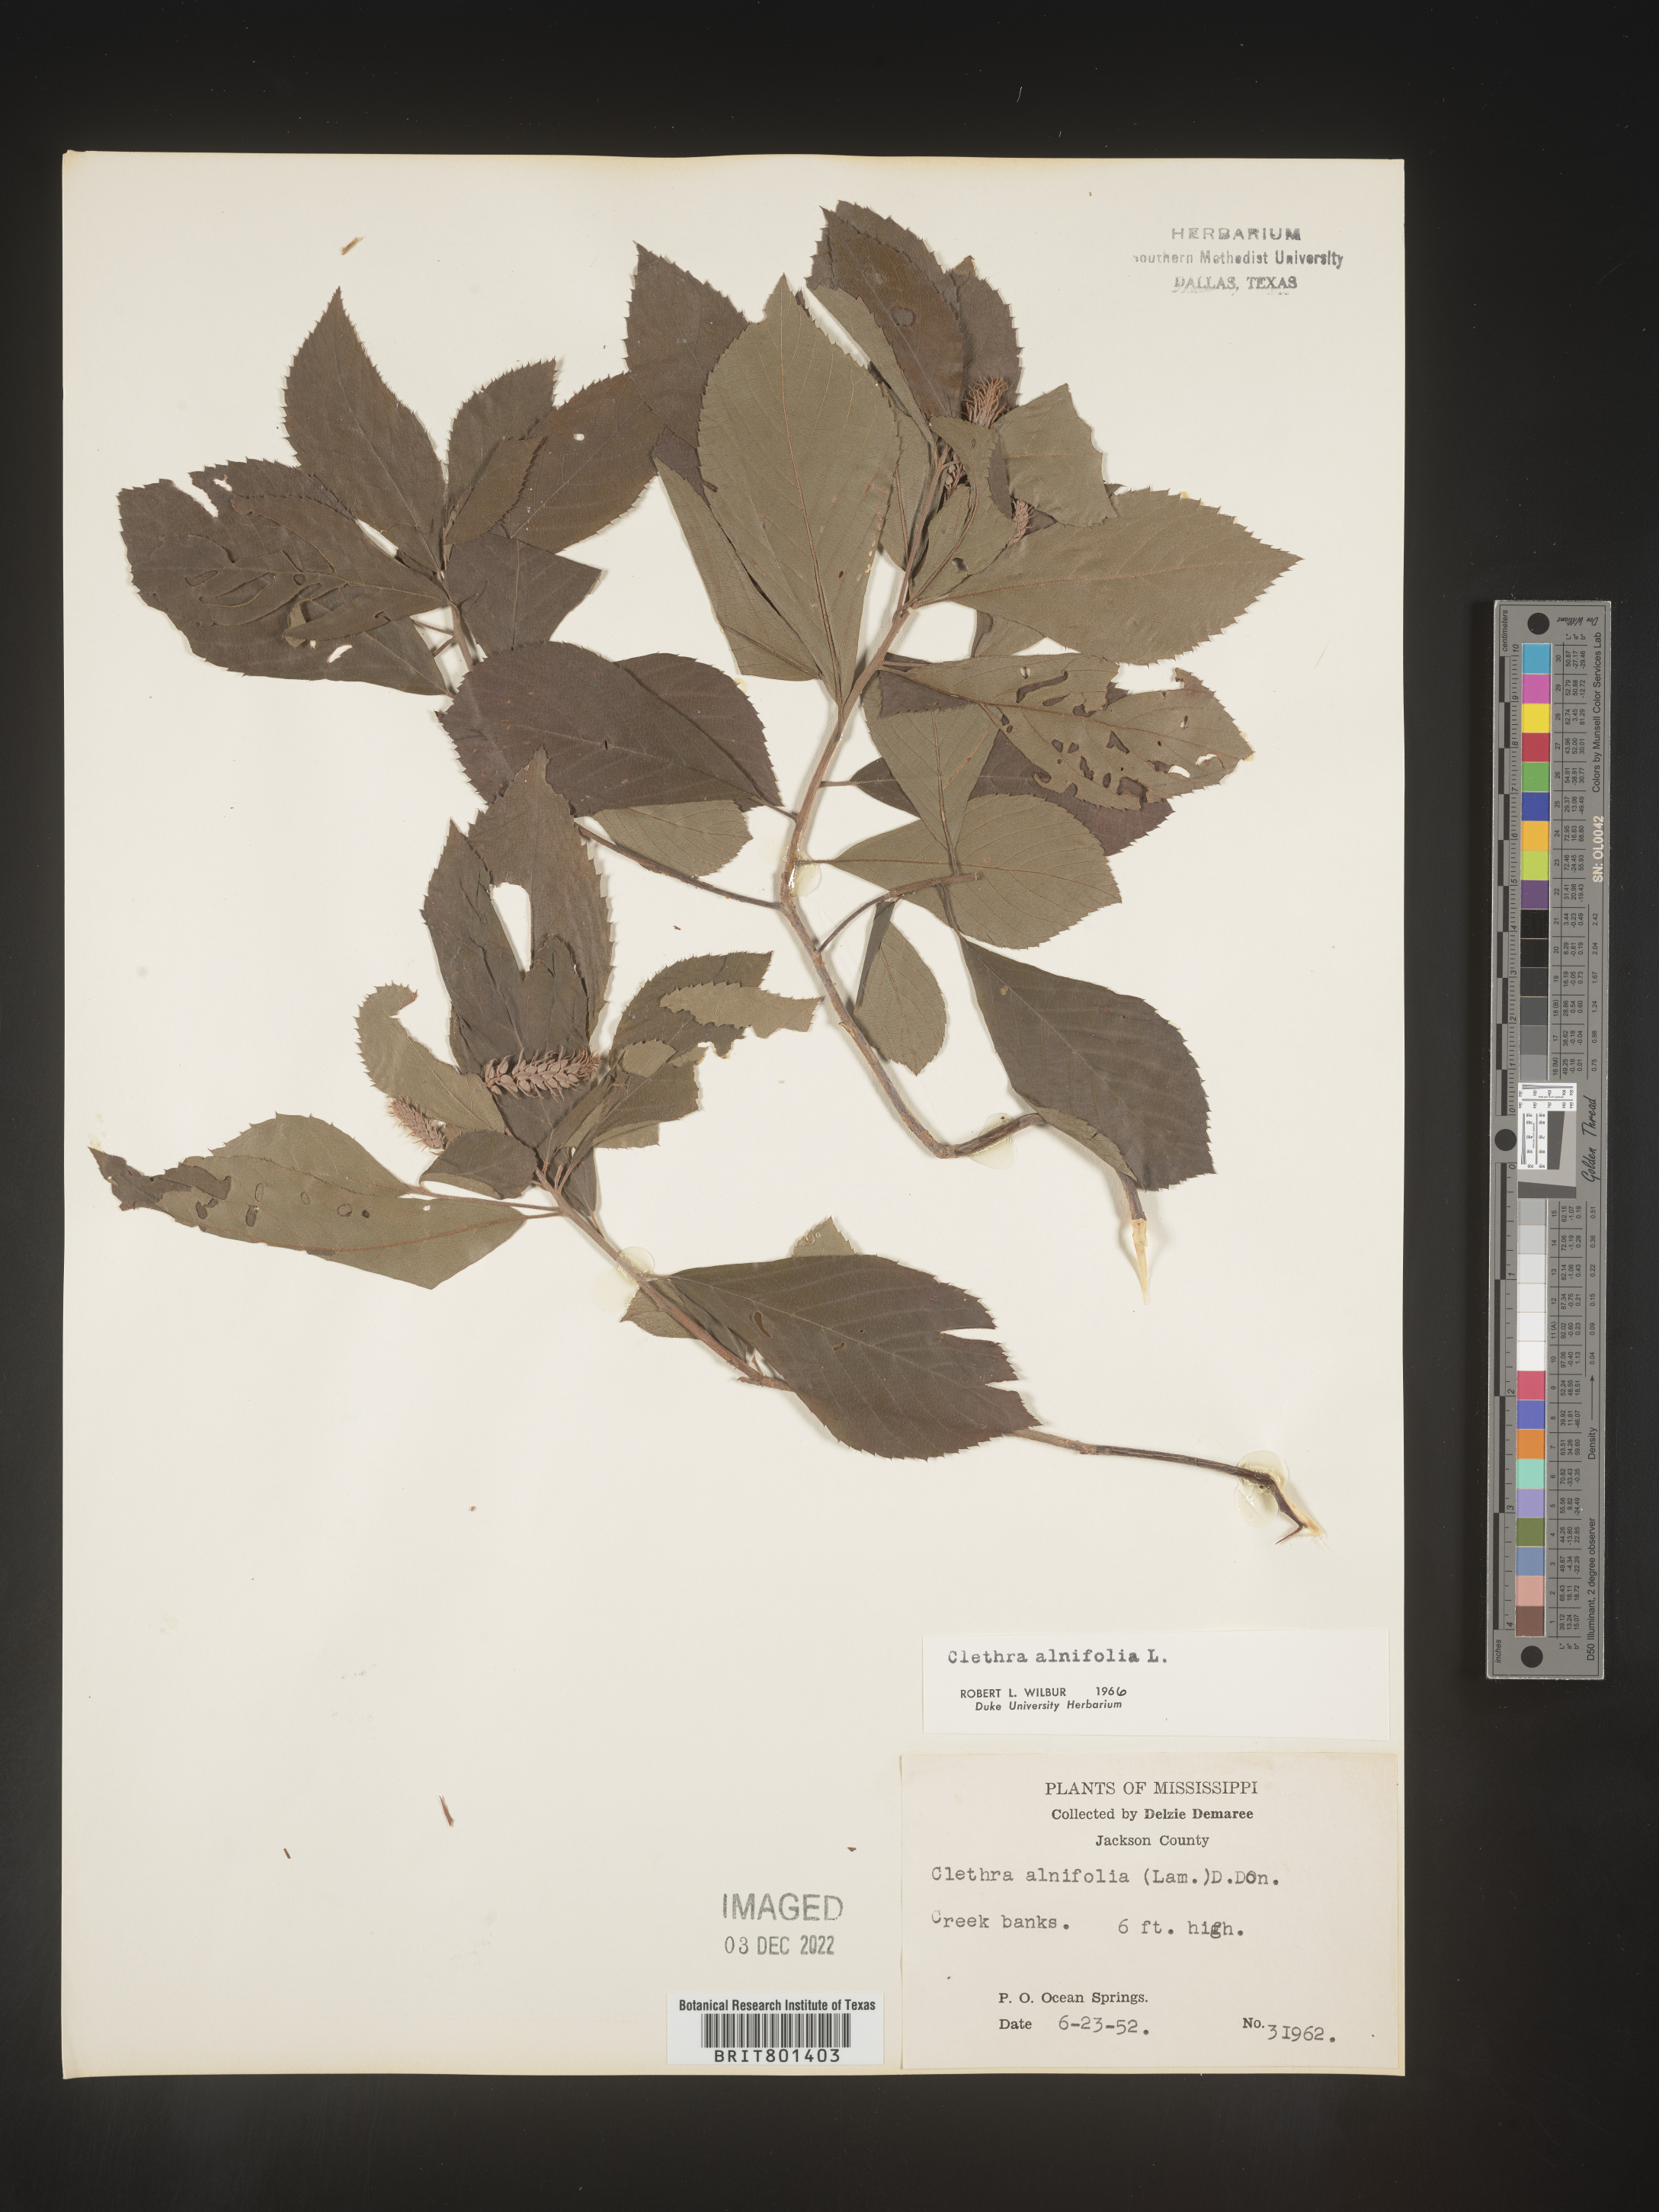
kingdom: Plantae
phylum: Tracheophyta
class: Magnoliopsida
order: Ericales
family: Clethraceae
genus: Clethra
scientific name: Clethra alnifolia
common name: Sweet pepperbush
